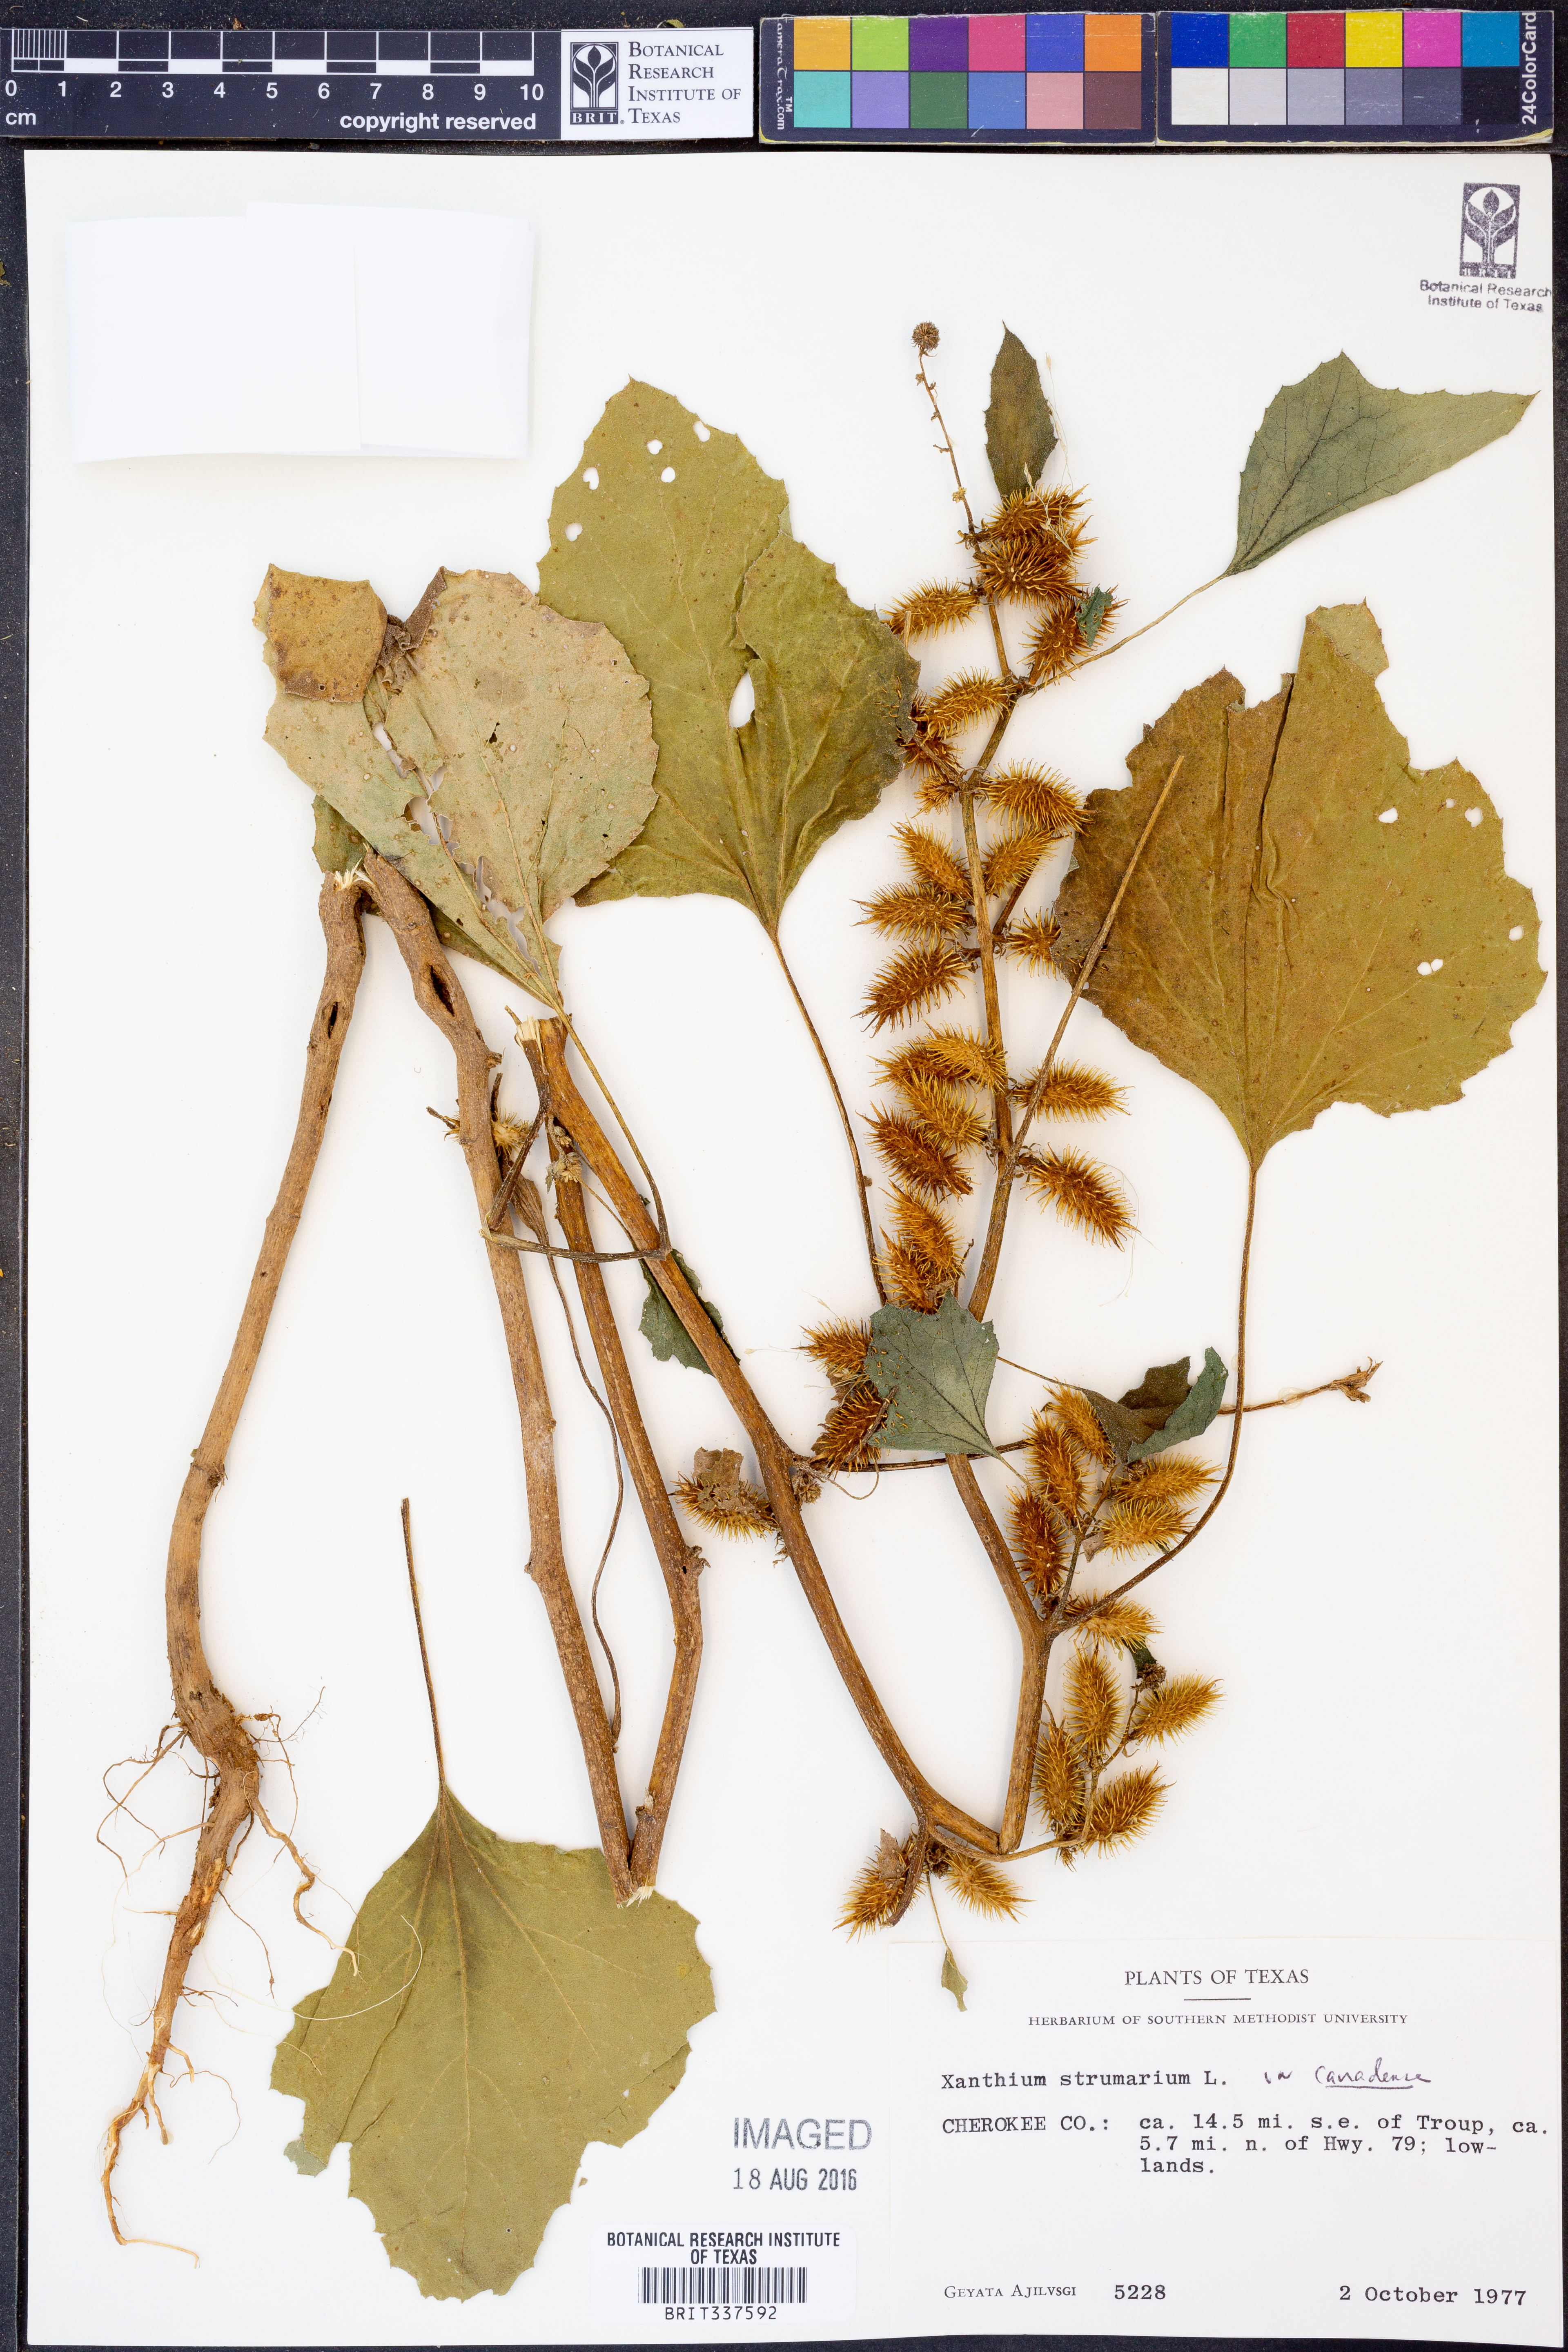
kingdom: Plantae
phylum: Tracheophyta
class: Magnoliopsida
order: Asterales
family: Asteraceae
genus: Xanthium
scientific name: Xanthium orientale
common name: Californian burr
